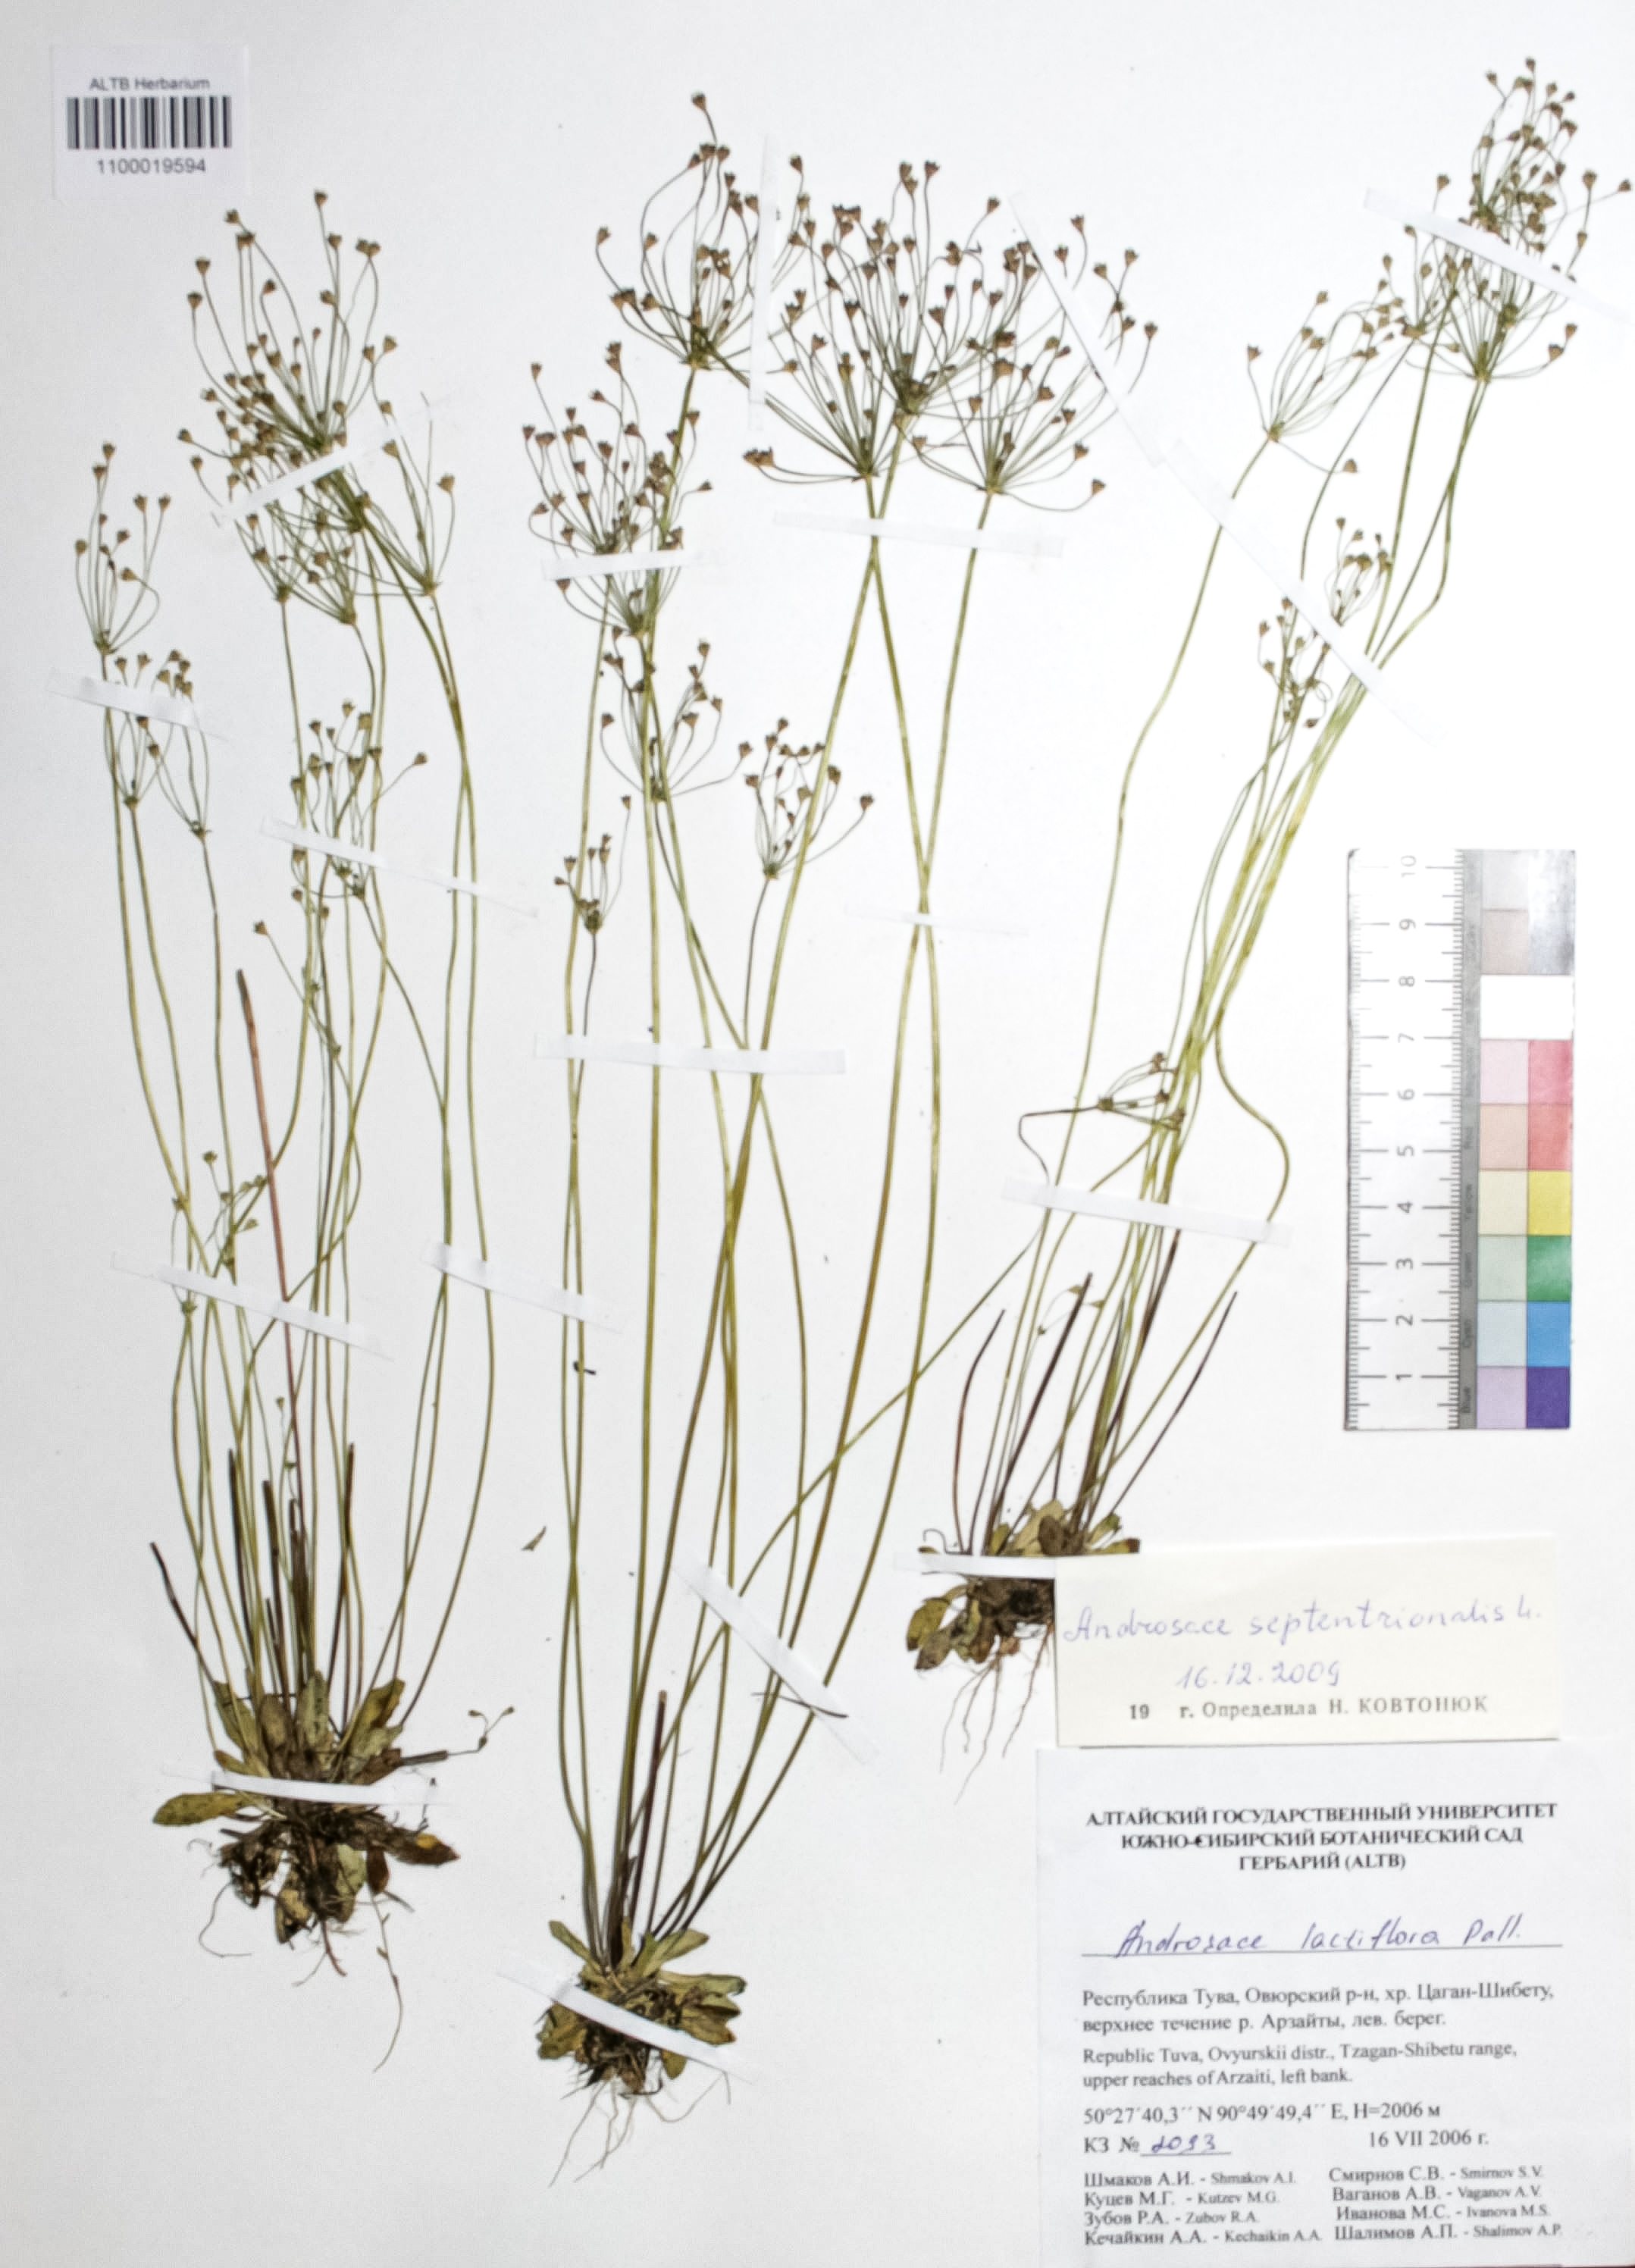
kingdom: Plantae
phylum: Tracheophyta
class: Magnoliopsida
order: Ericales
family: Primulaceae
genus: Androsace
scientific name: Androsace septentrionalis
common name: Hairy northern fairy-candelabra
